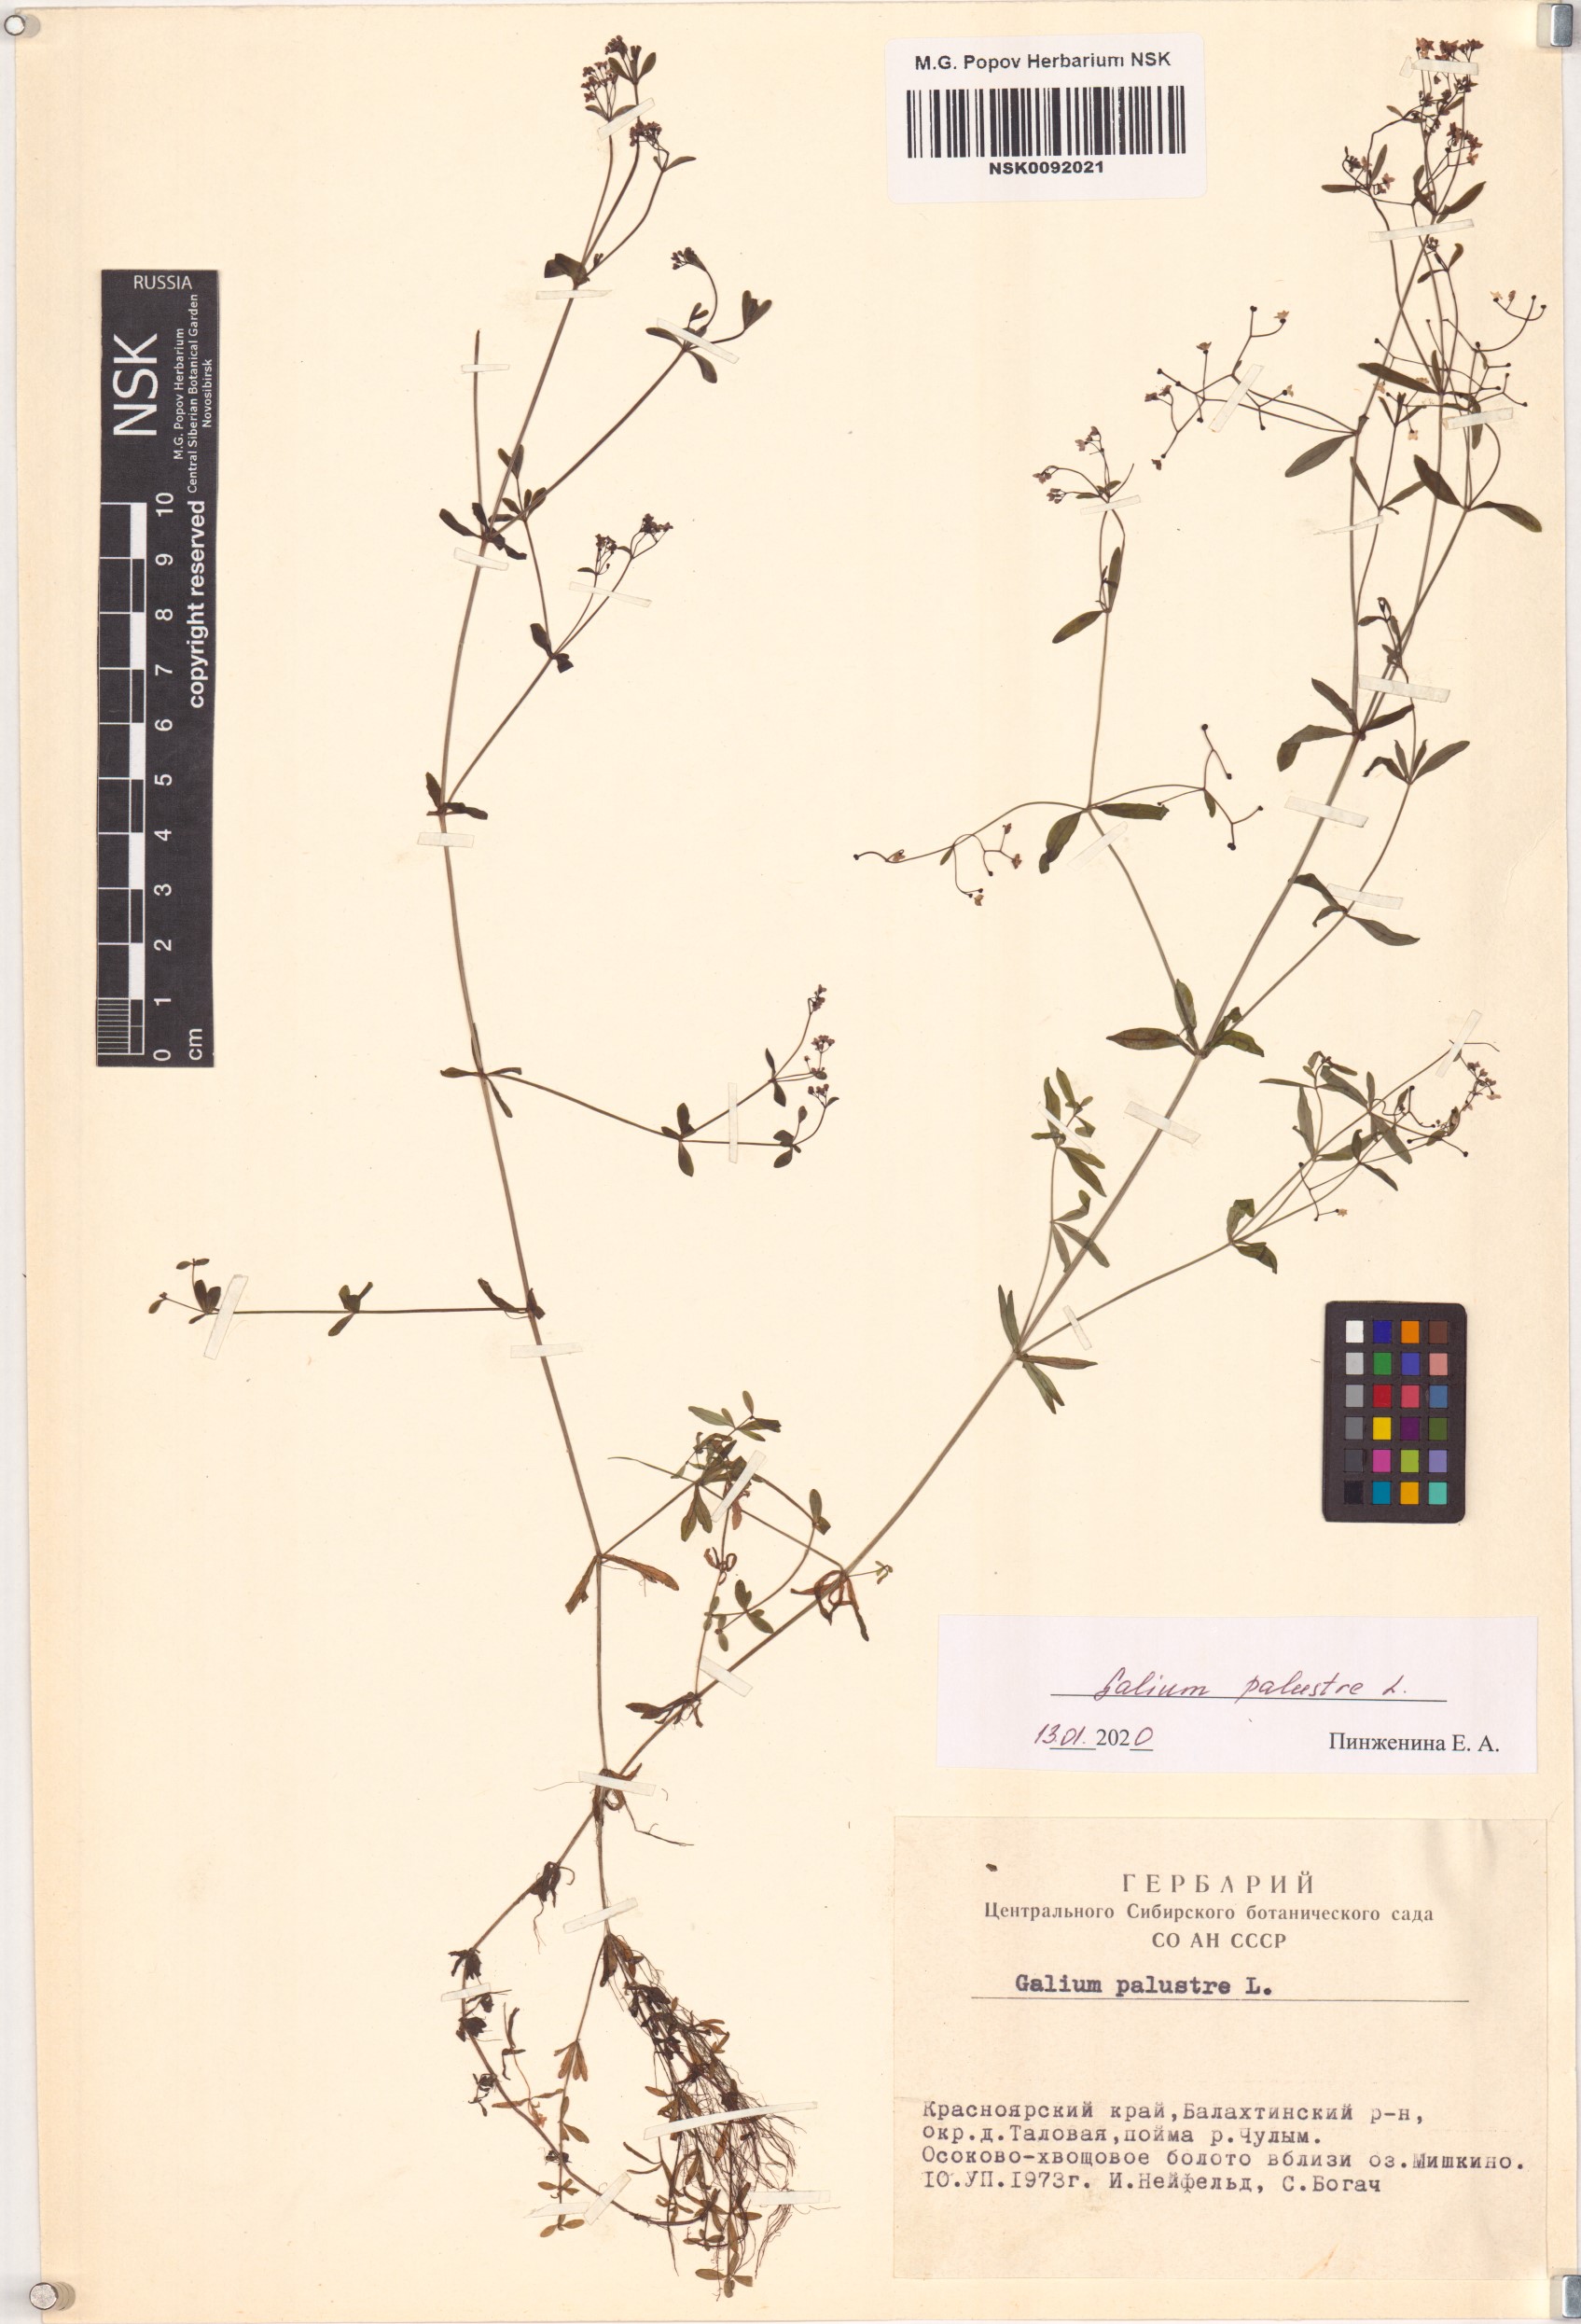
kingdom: Plantae
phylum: Tracheophyta
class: Magnoliopsida
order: Gentianales
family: Rubiaceae
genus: Galium
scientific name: Galium palustre
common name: Common marsh-bedstraw
